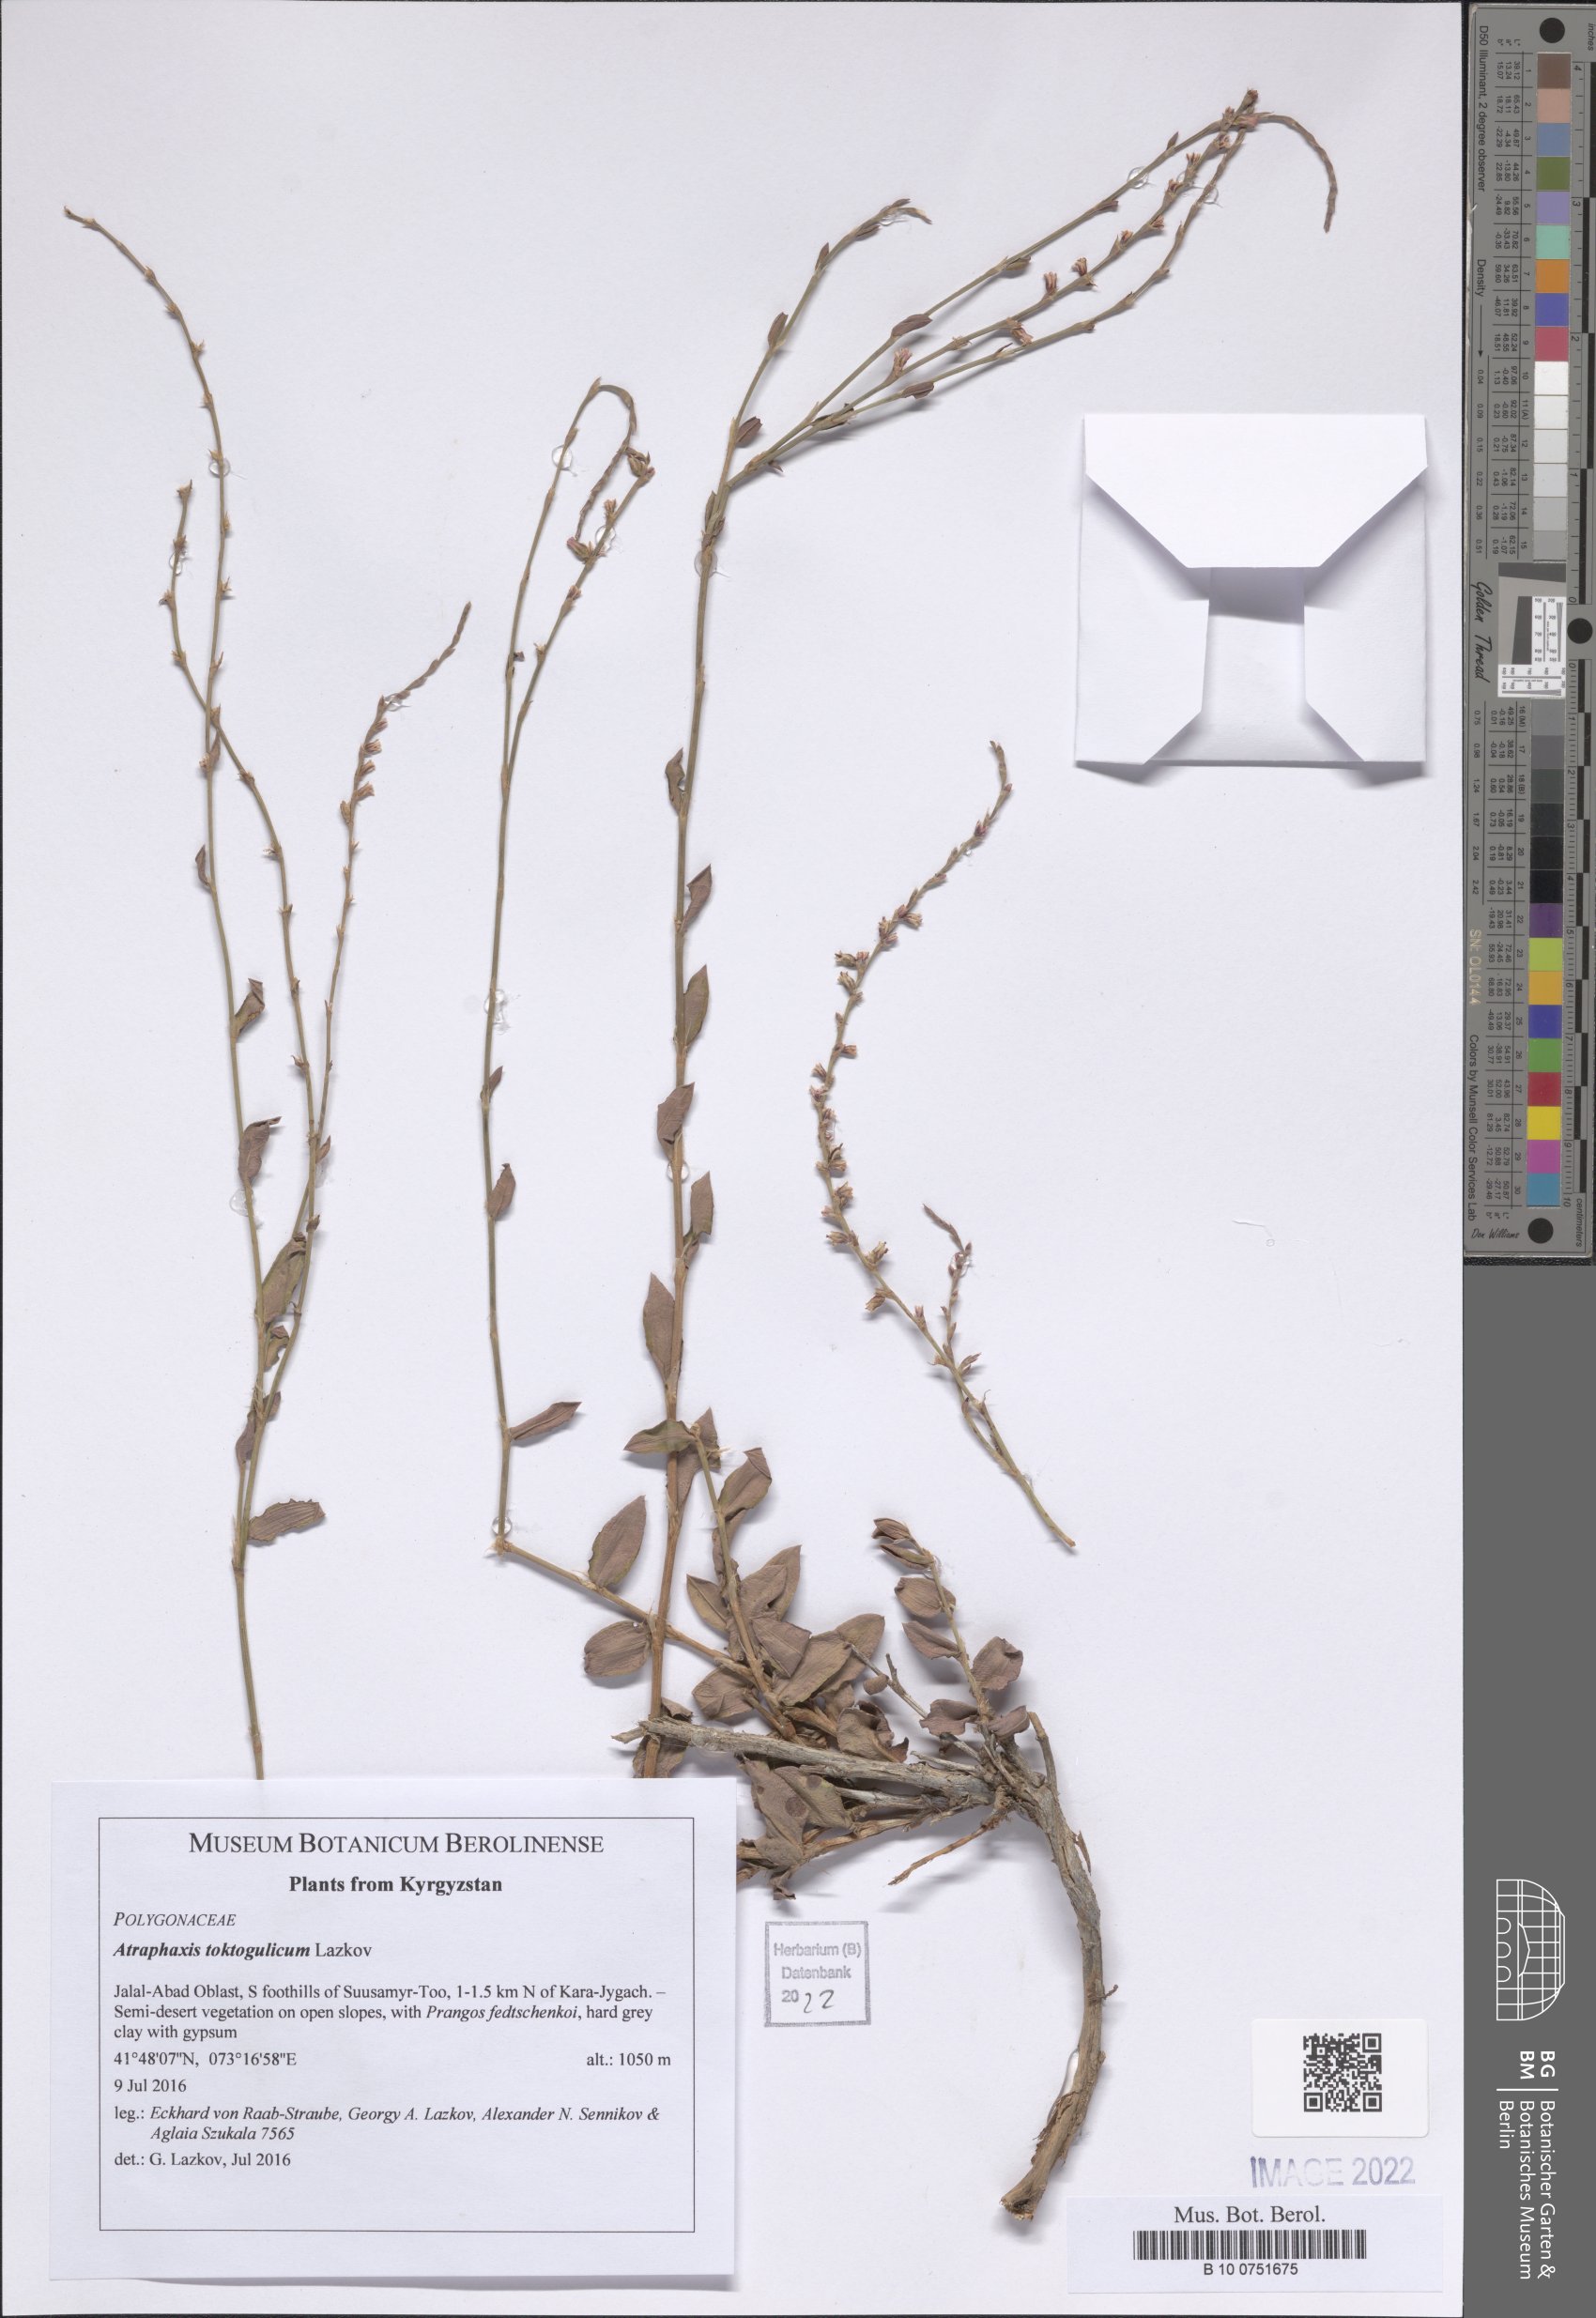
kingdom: Plantae
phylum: Tracheophyta
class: Magnoliopsida
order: Caryophyllales
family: Polygonaceae
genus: Atraphaxis
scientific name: Atraphaxis toktogulica
